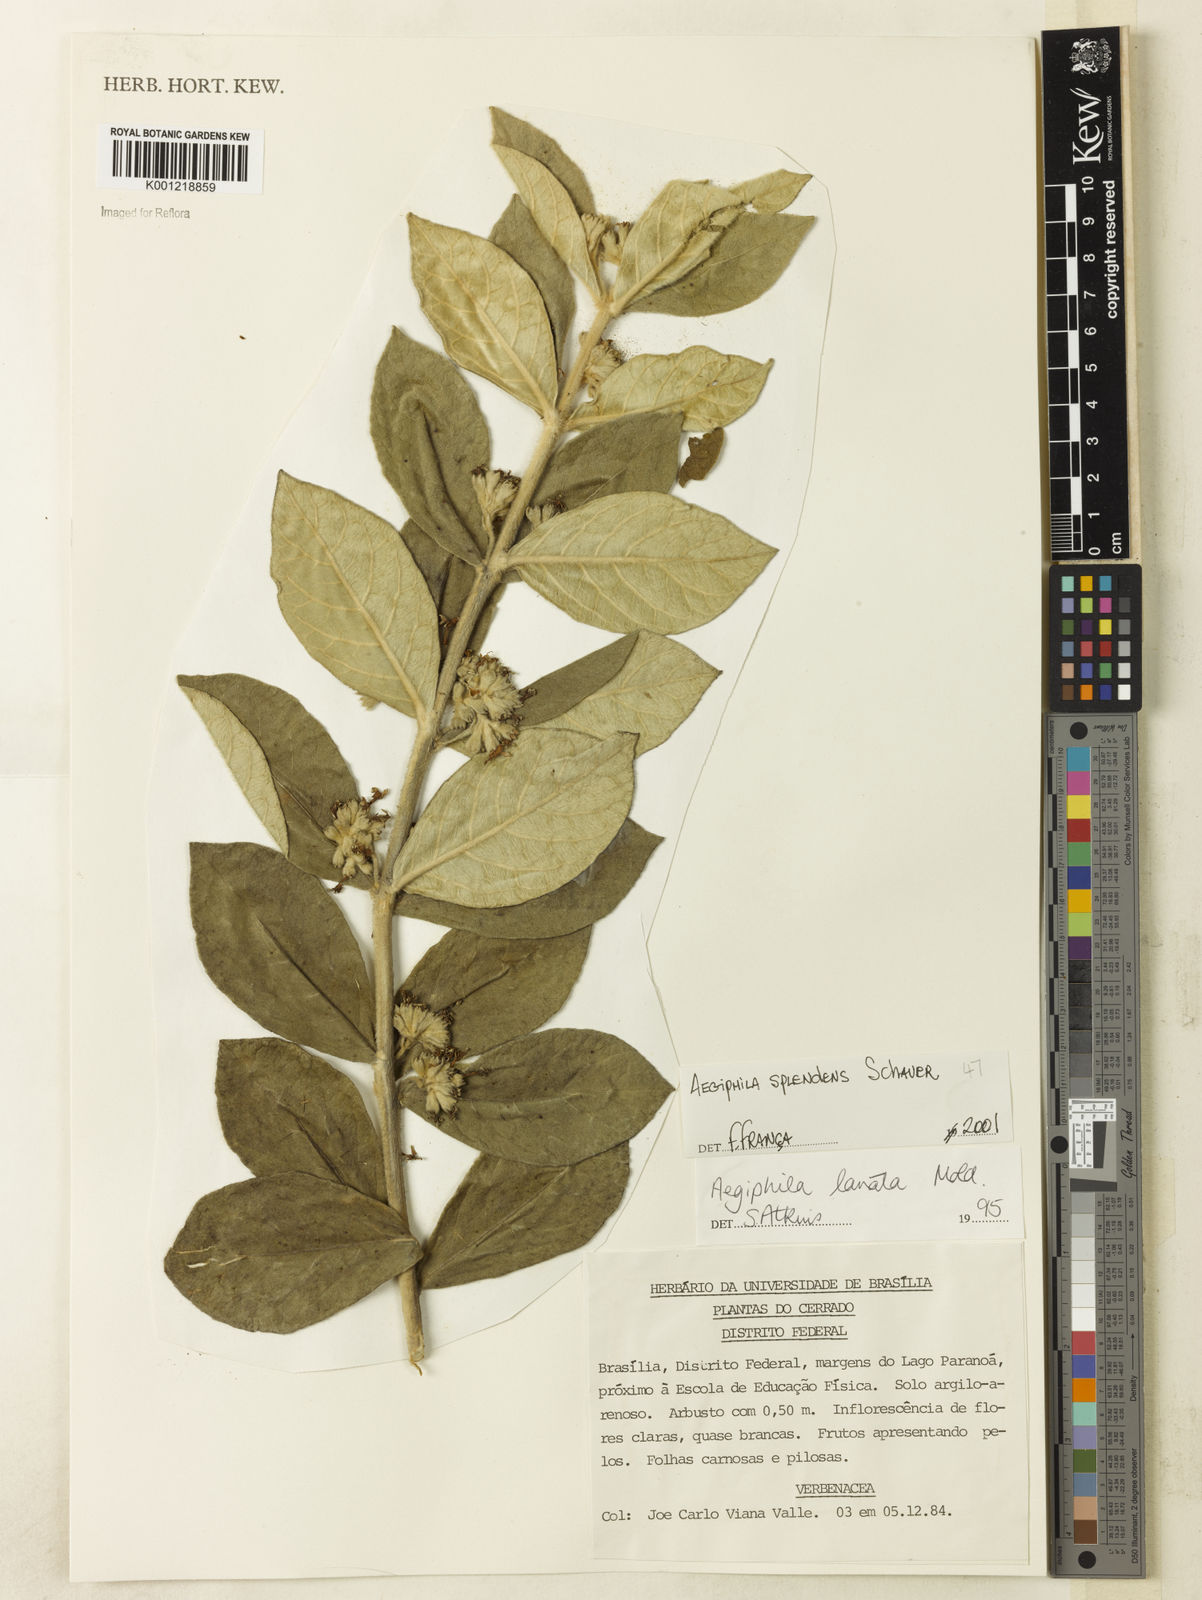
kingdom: Plantae
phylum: Tracheophyta
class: Magnoliopsida
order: Lamiales
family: Lamiaceae
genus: Aegiphila
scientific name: Aegiphila verticillata
